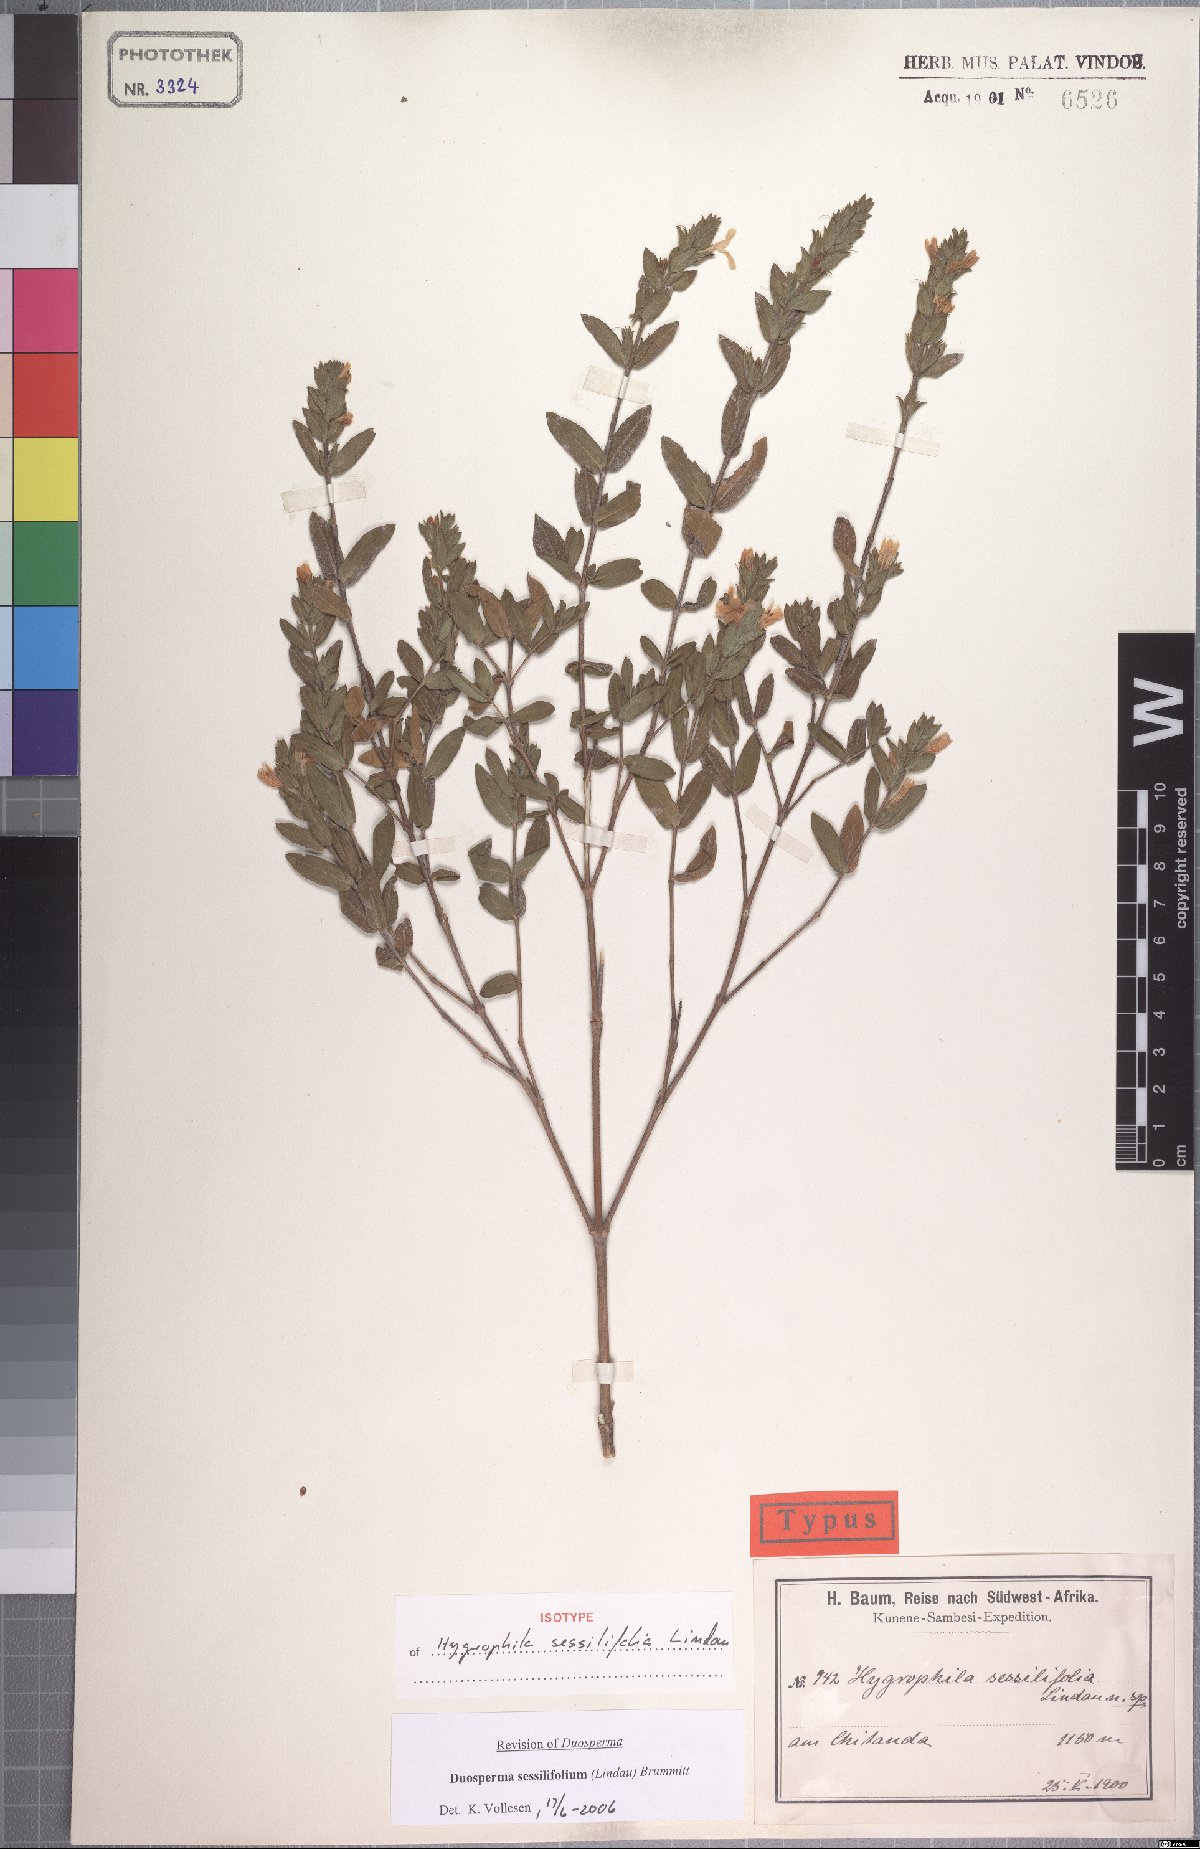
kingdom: Plantae
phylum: Tracheophyta
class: Magnoliopsida
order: Lamiales
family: Acanthaceae
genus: Duosperma
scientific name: Duosperma sessilifolium
